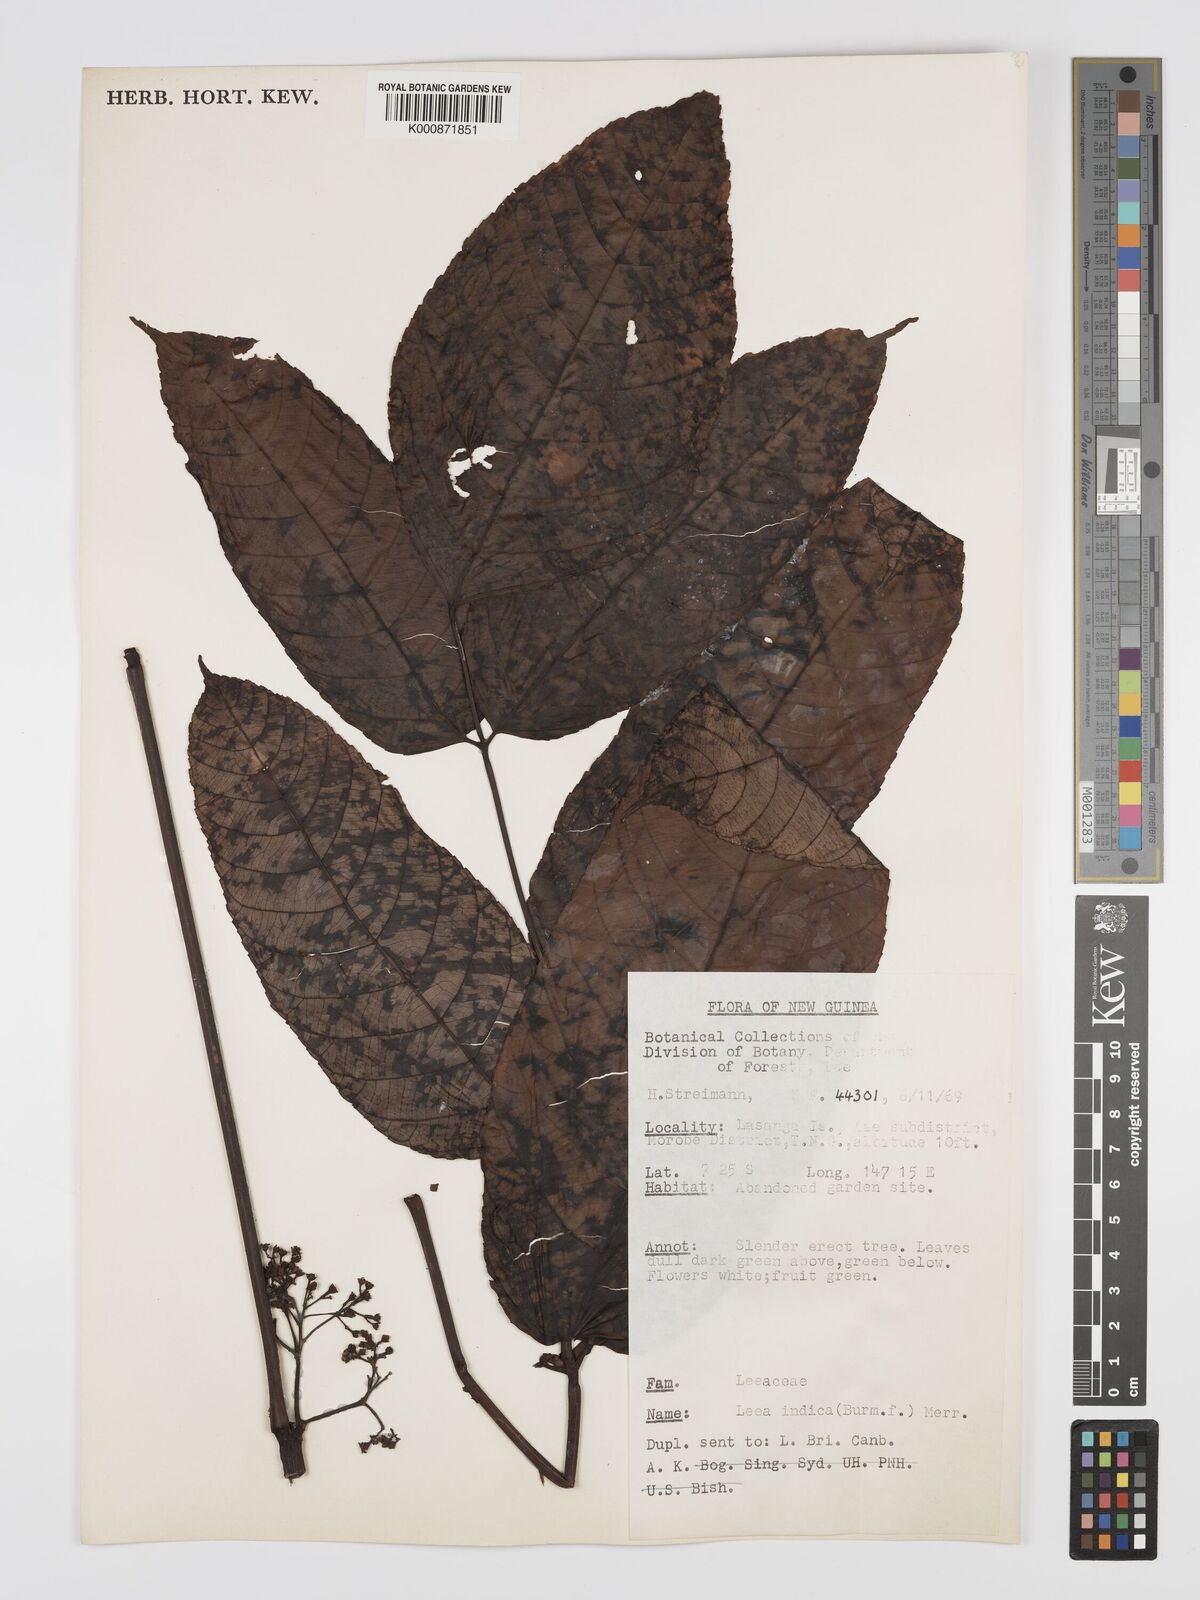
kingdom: Plantae
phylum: Tracheophyta
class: Magnoliopsida
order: Vitales
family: Vitaceae
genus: Leea
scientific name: Leea indica
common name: Bandicoot-berry
